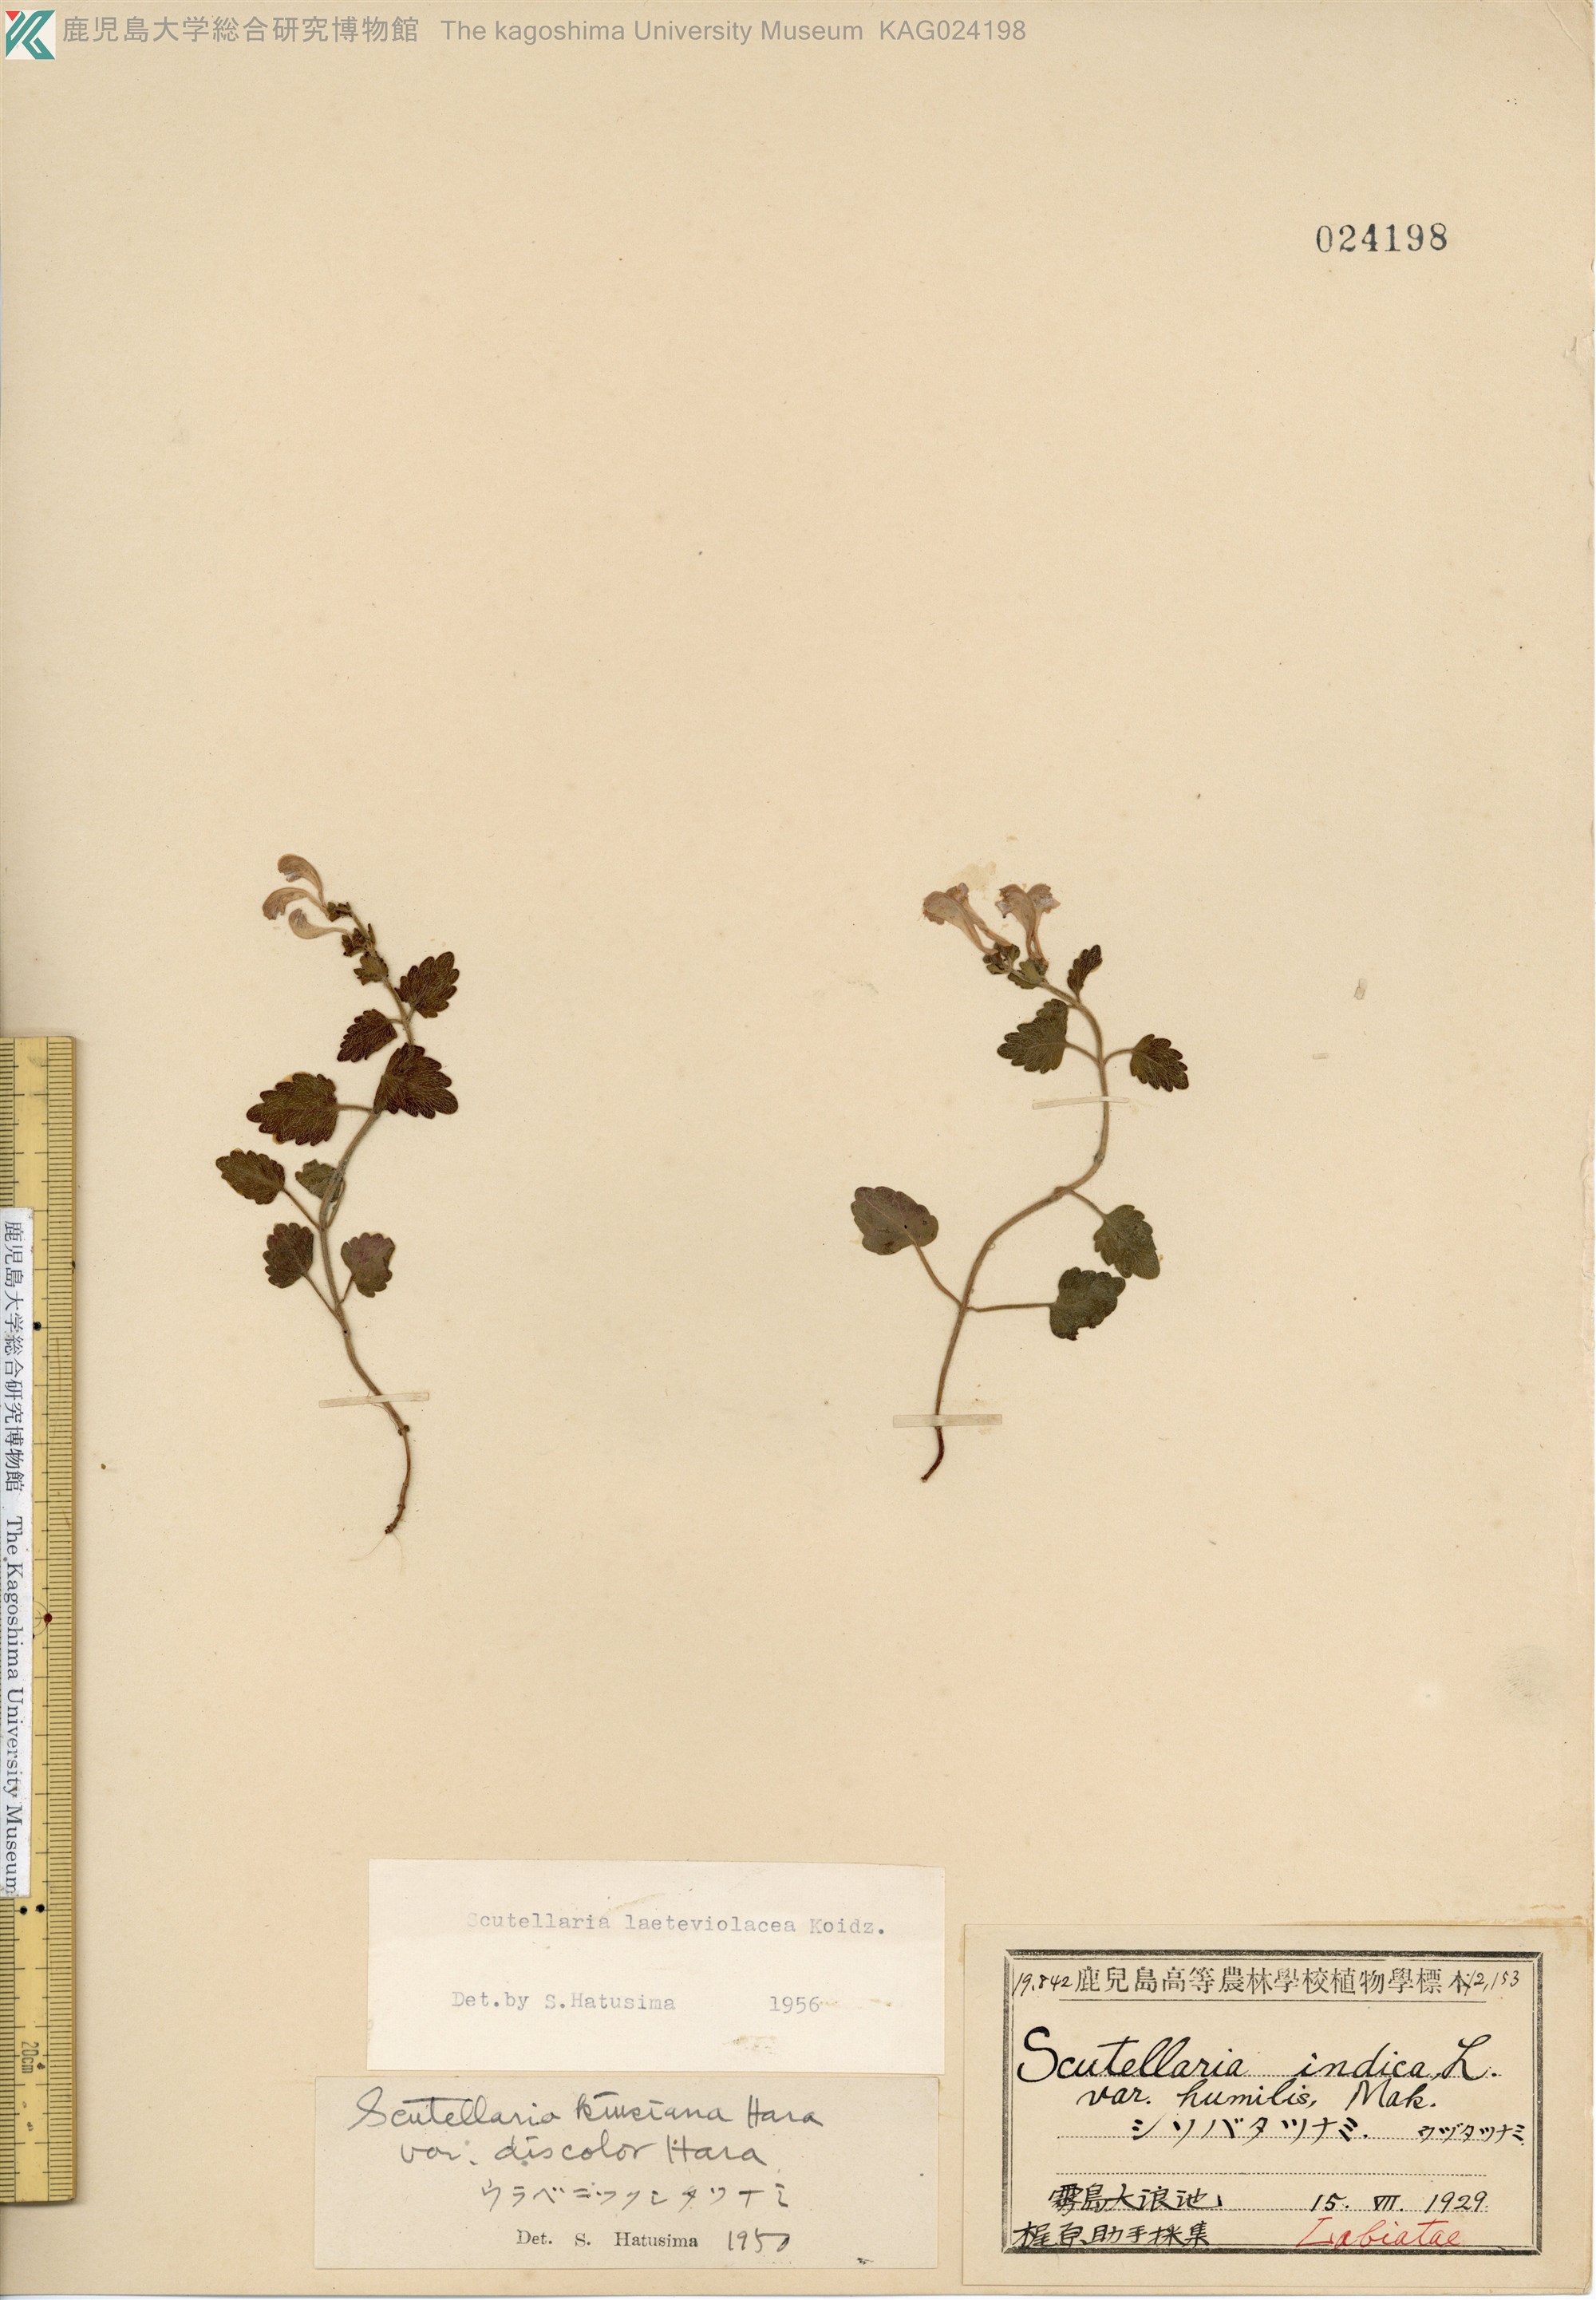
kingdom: Plantae
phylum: Tracheophyta
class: Magnoliopsida
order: Lamiales
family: Lamiaceae
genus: Scutellaria
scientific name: Scutellaria laeteviolacea
